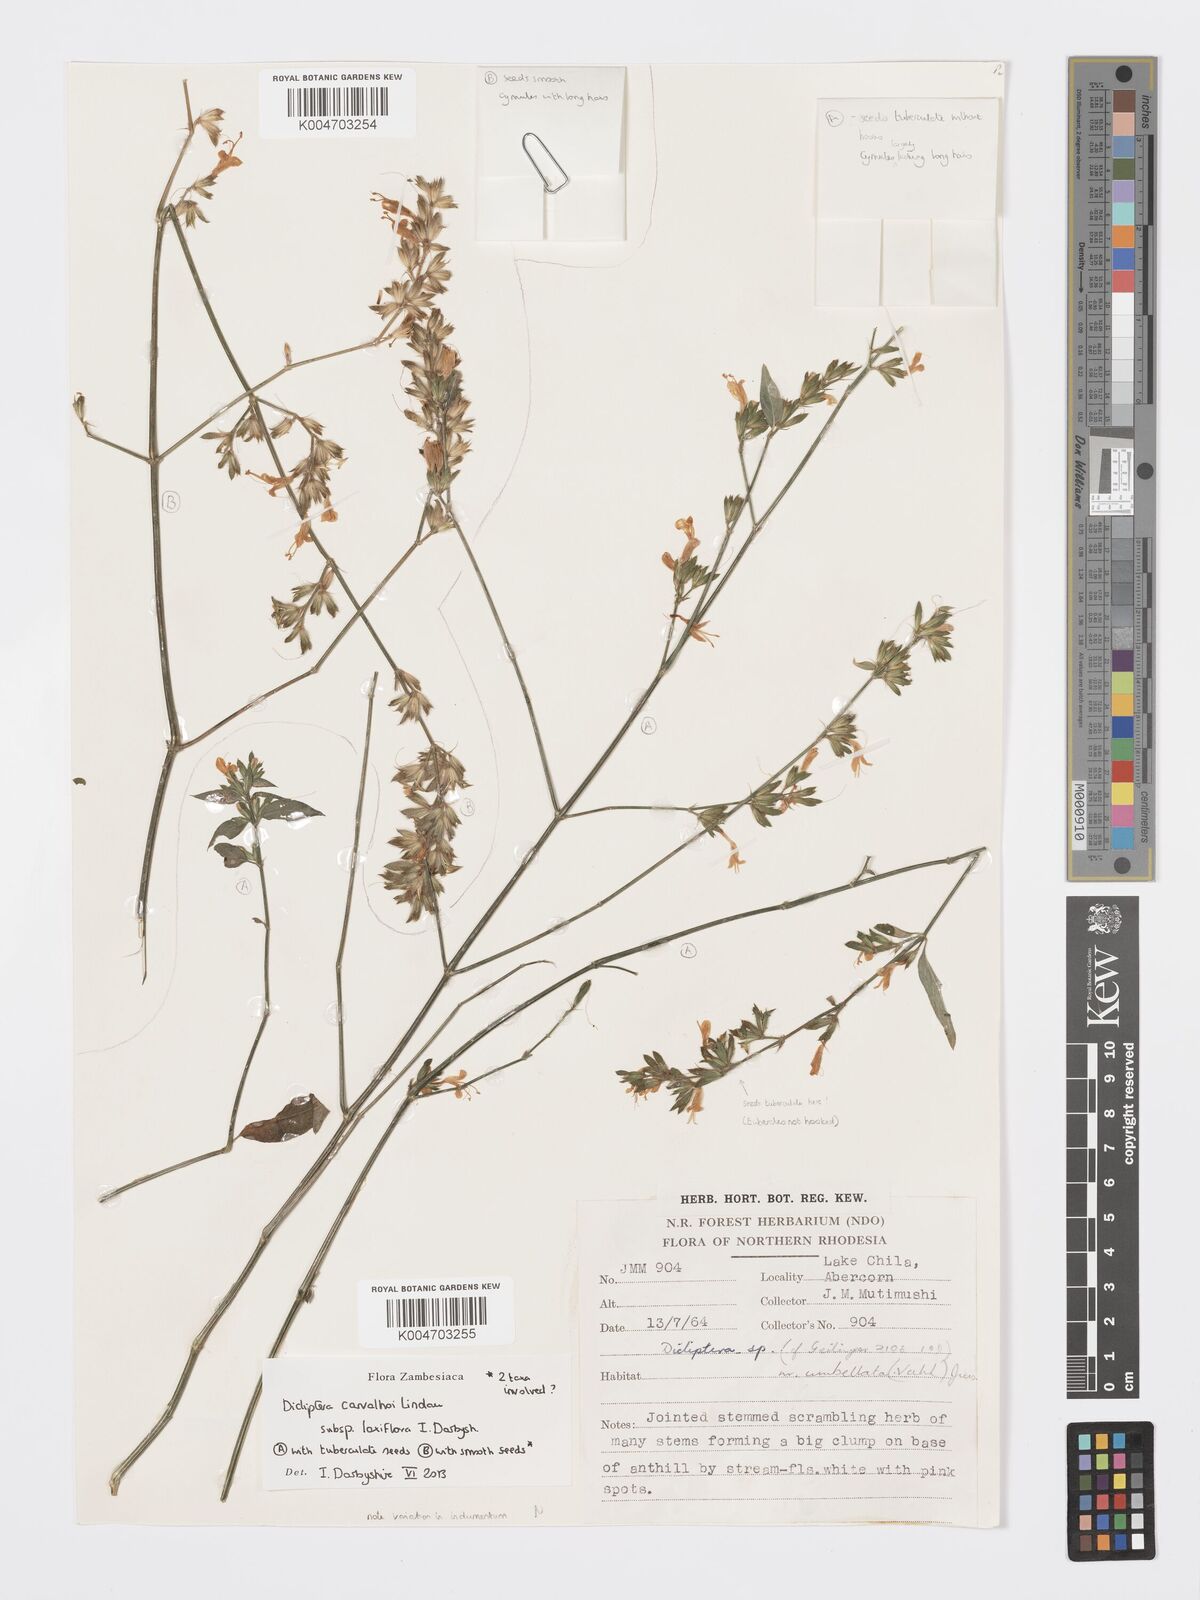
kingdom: Plantae
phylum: Tracheophyta
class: Magnoliopsida
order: Lamiales
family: Acanthaceae
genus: Dicliptera
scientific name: Dicliptera carvalhoi
